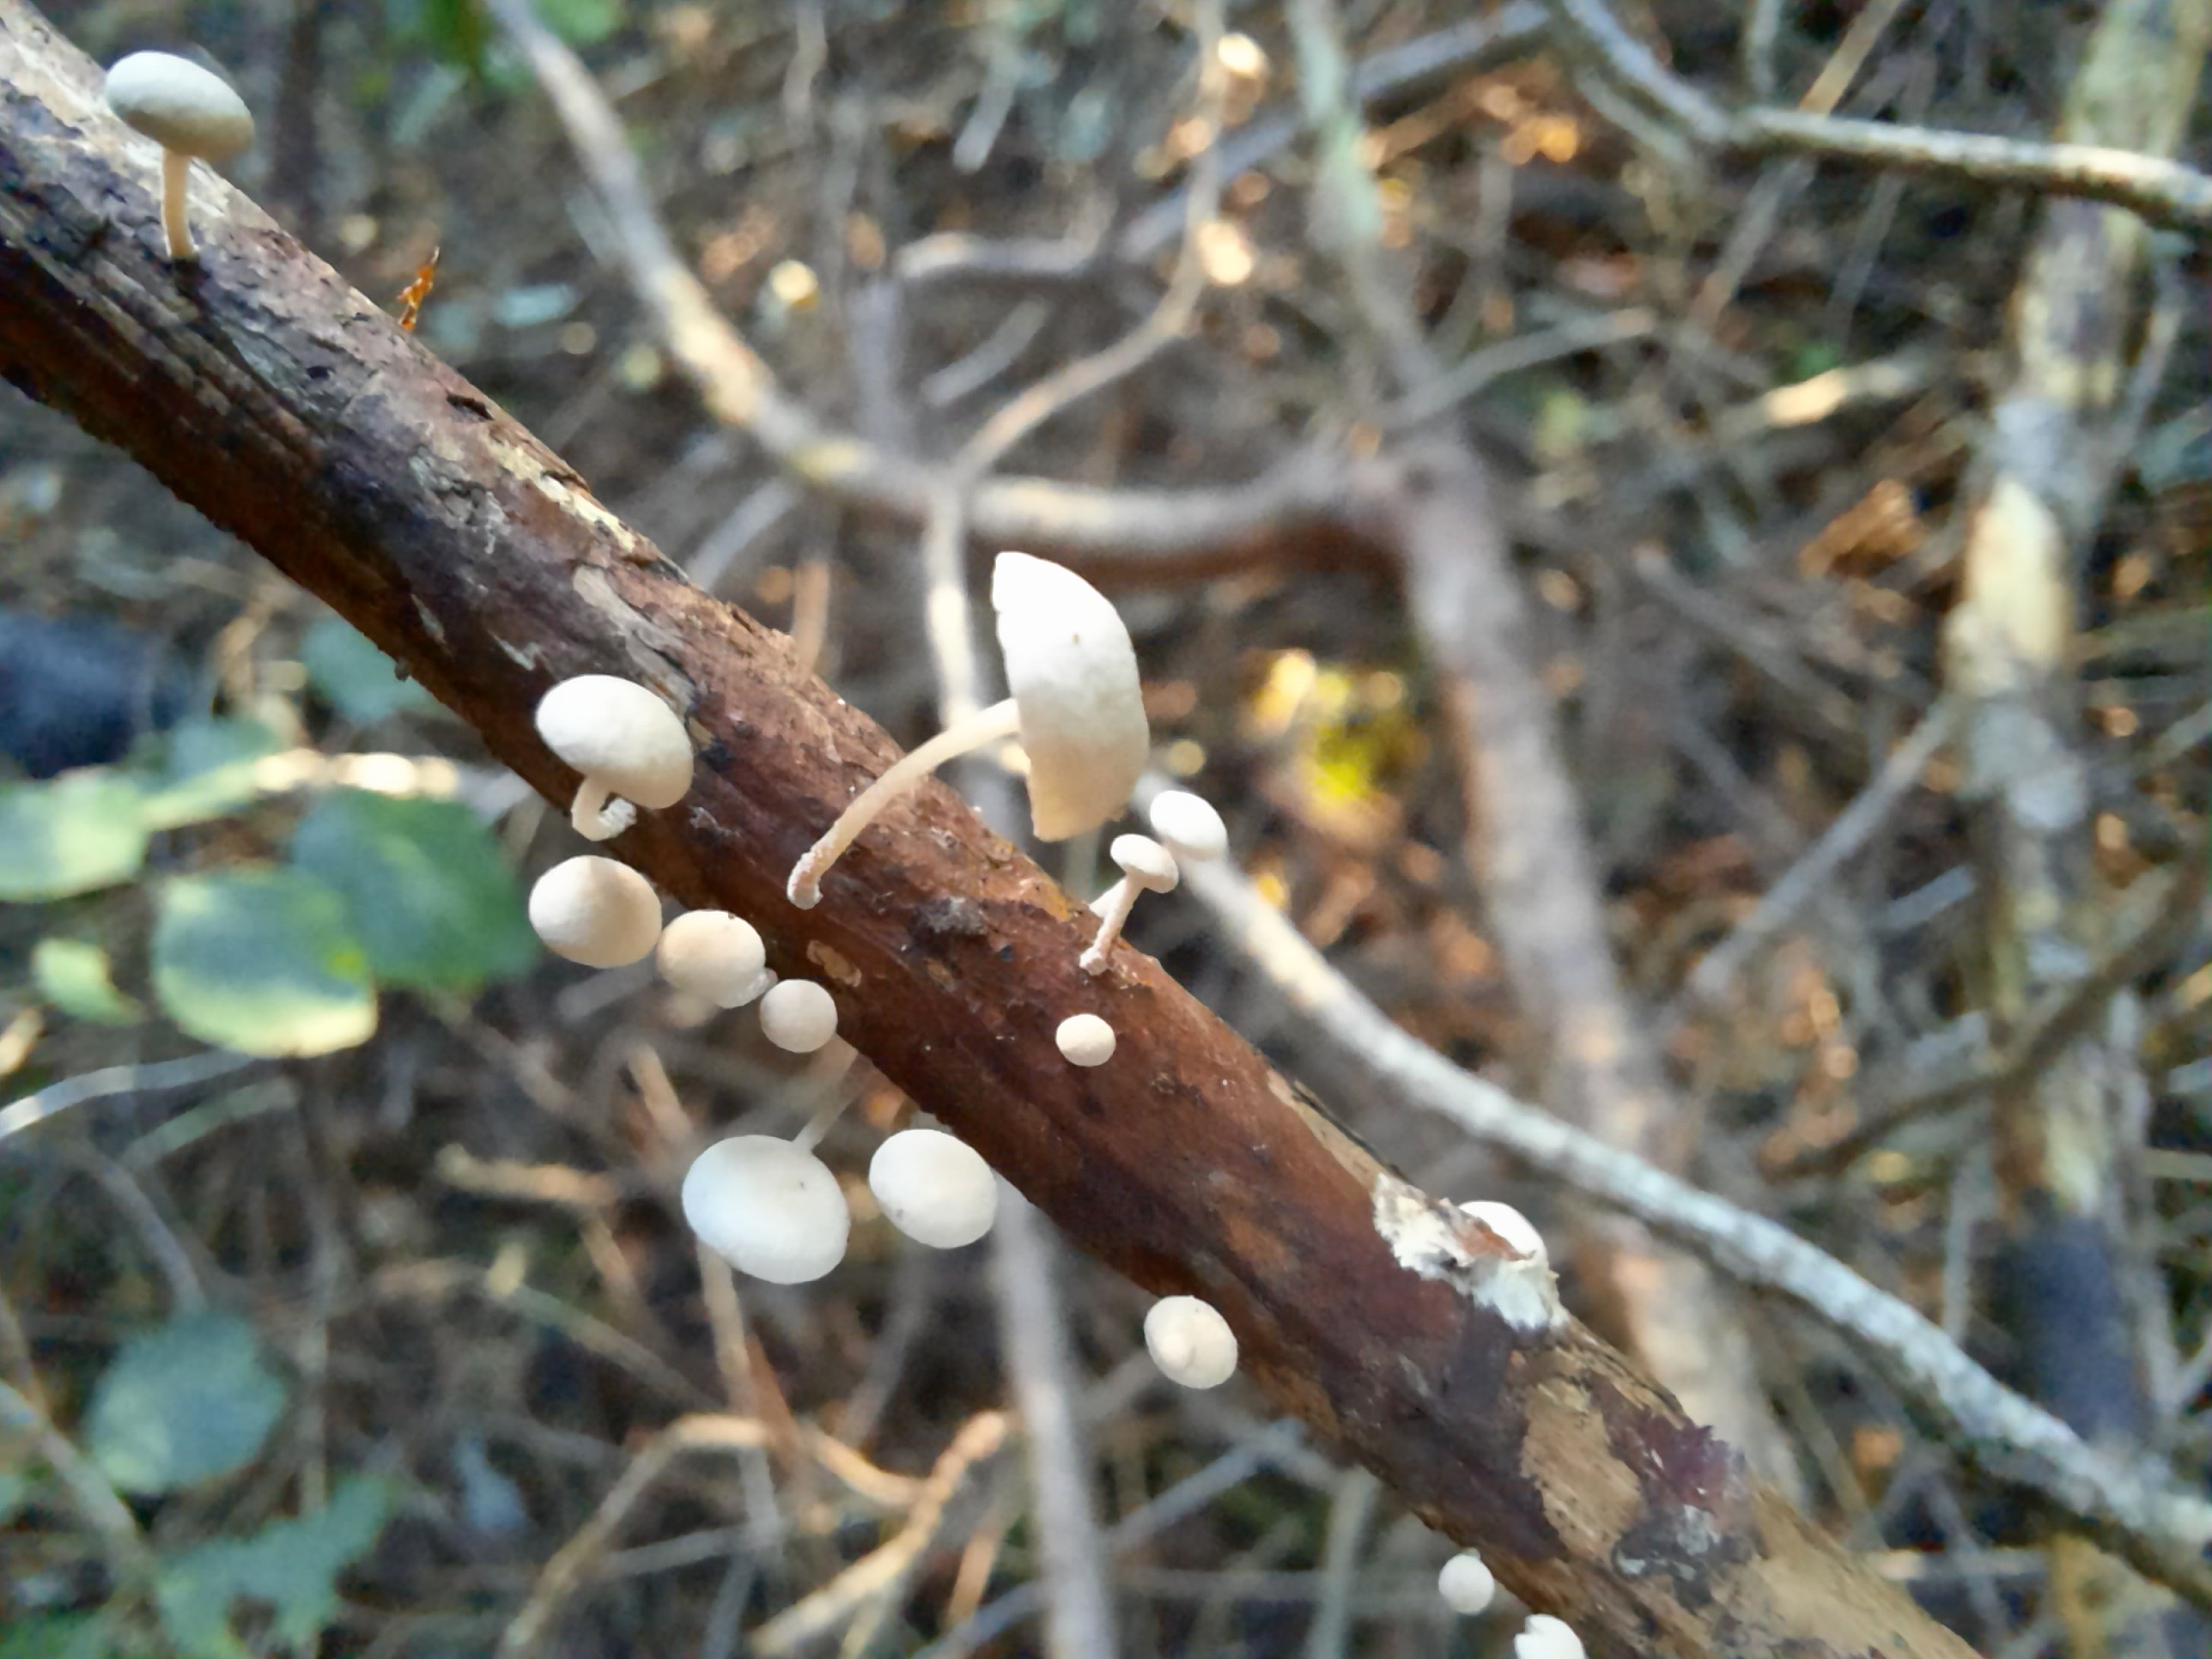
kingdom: Fungi
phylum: Basidiomycota
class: Agaricomycetes
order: Agaricales
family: Omphalotaceae
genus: Collybiopsis
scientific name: Collybiopsis ramealis
